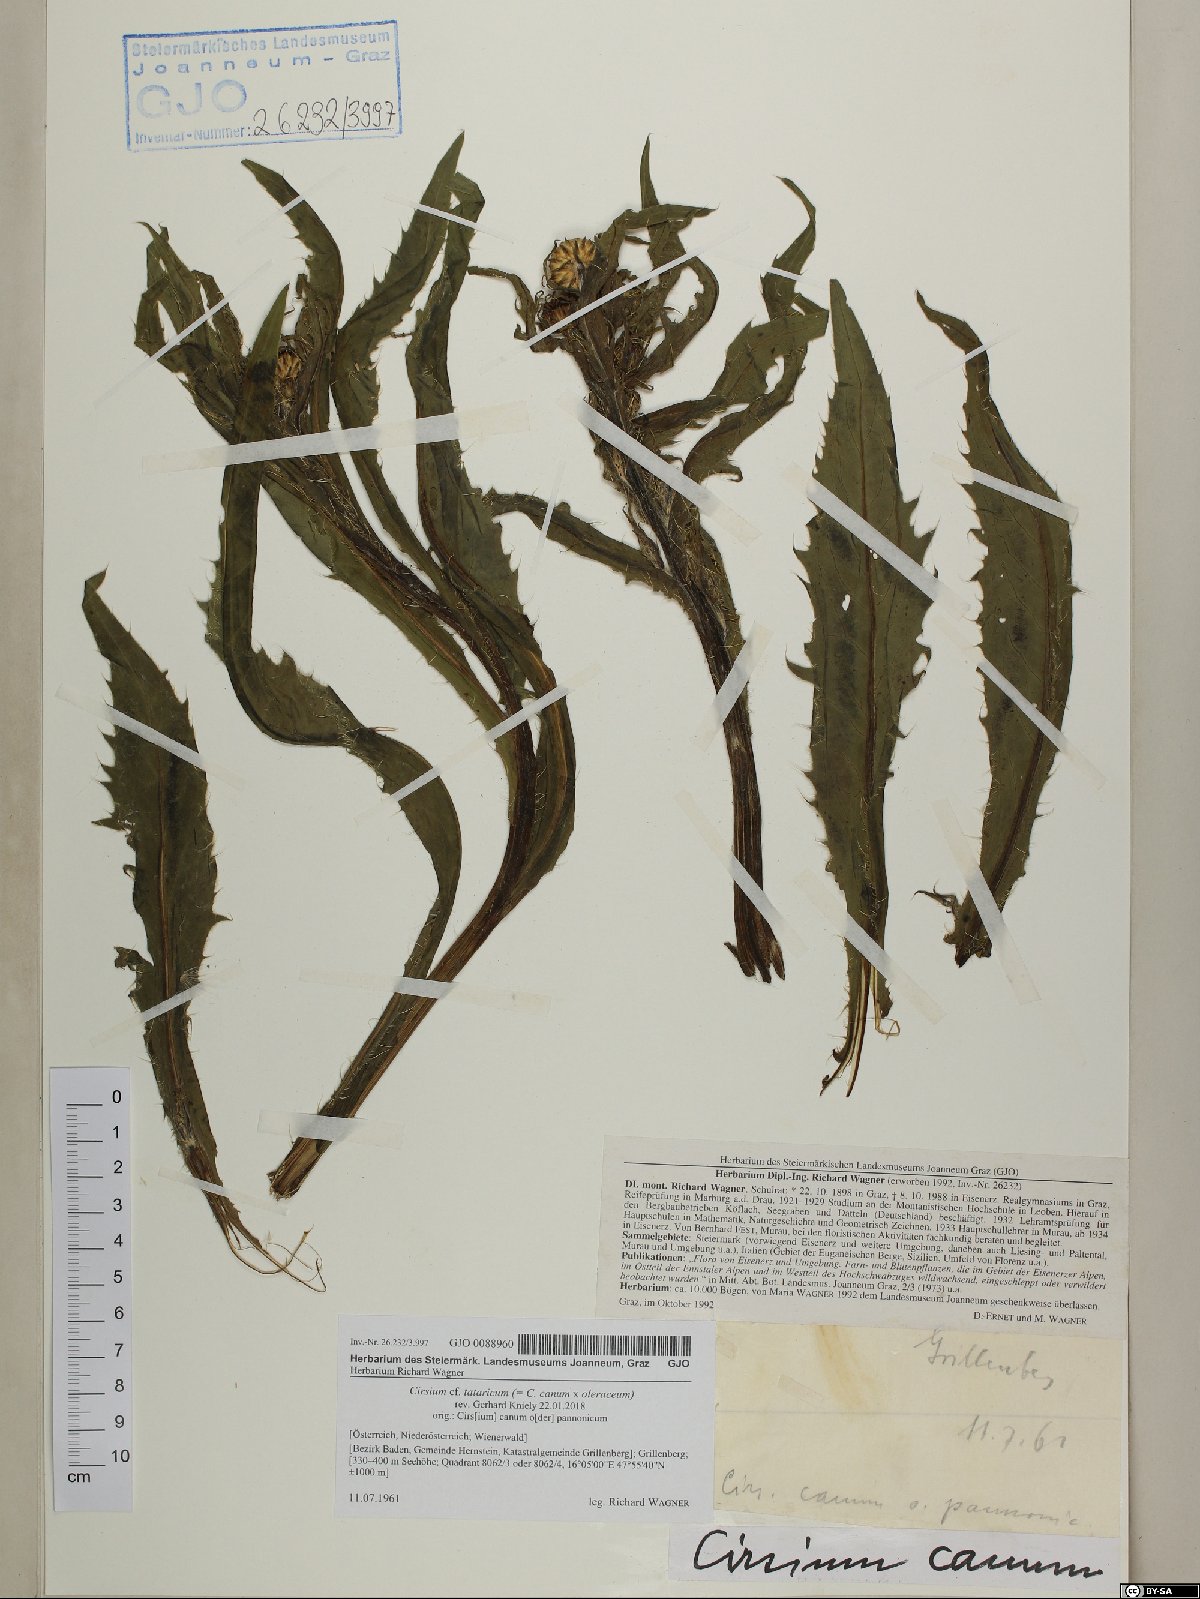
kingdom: Plantae
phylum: Tracheophyta
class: Magnoliopsida
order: Asterales
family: Asteraceae
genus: Cirsium
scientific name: Cirsium canum
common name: Queen anne's thistle
